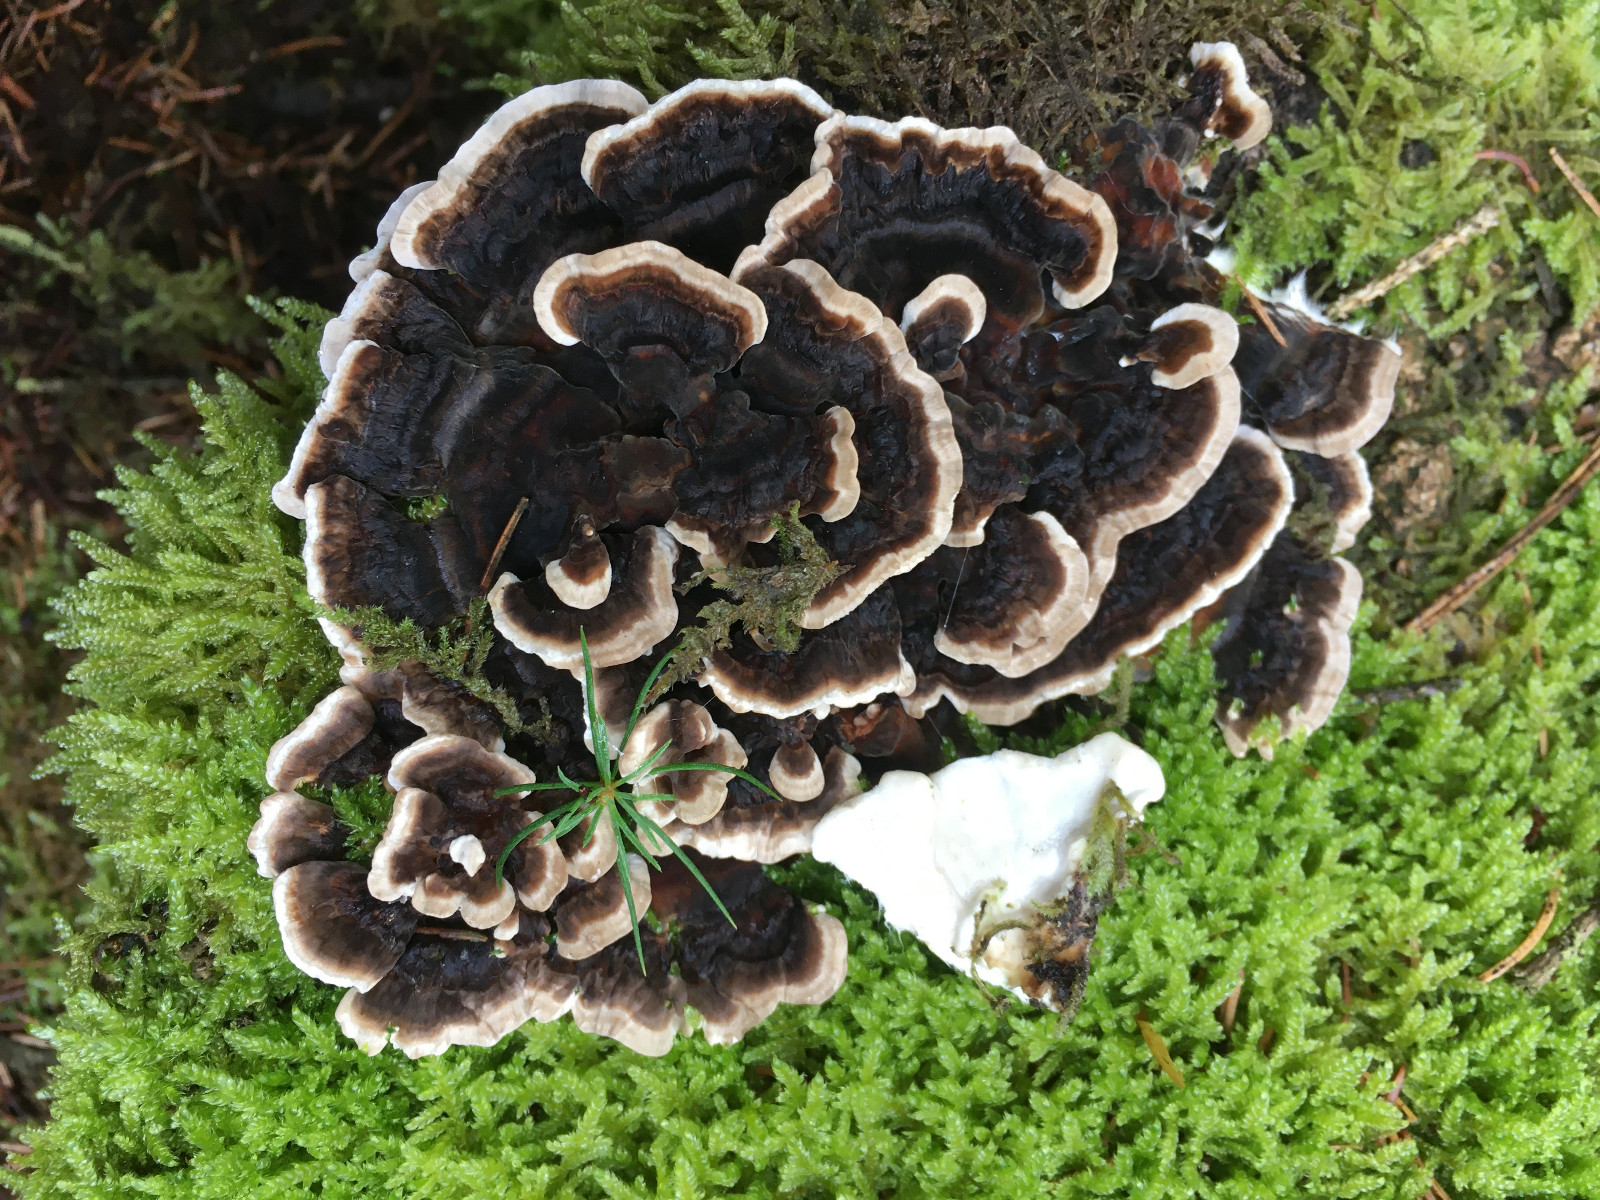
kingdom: Fungi
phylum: Basidiomycota
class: Agaricomycetes
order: Polyporales
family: Polyporaceae
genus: Trametes
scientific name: Trametes versicolor
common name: broget læderporesvamp
